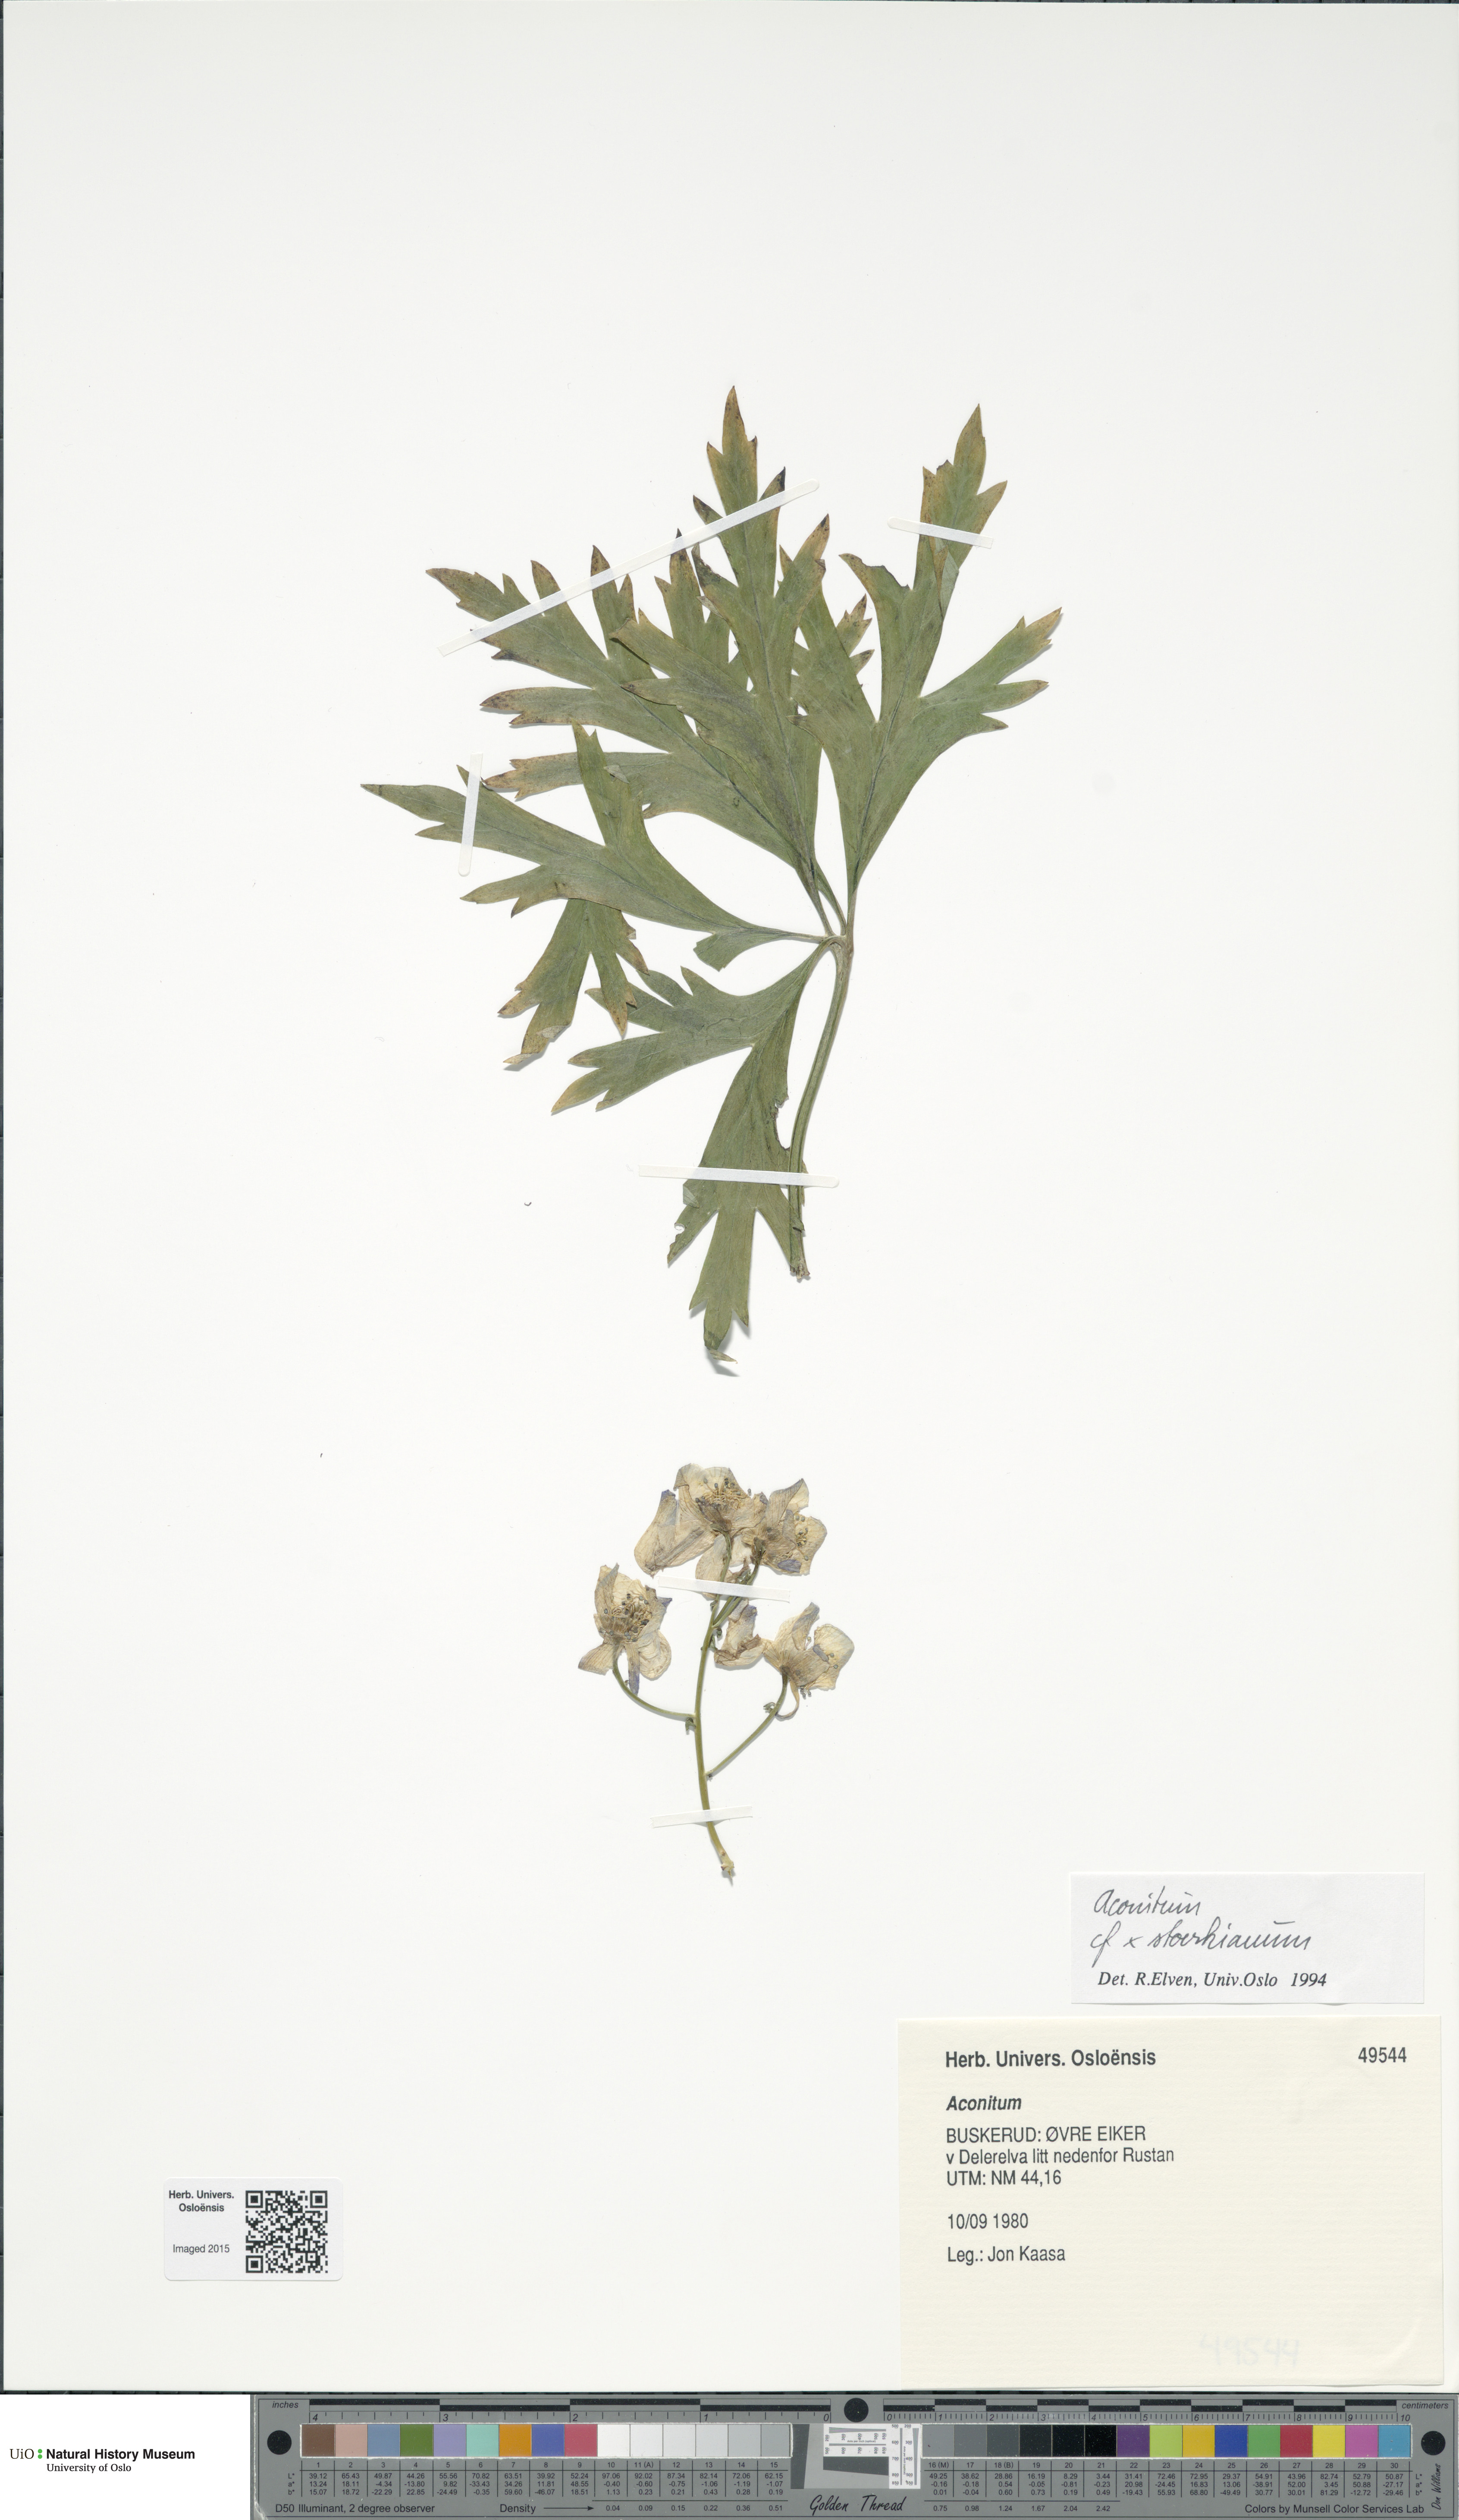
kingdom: Plantae
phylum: Tracheophyta
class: Magnoliopsida
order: Ranunculales
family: Ranunculaceae
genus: Aconitum
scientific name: Aconitum cammarum
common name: Hybrid monk's-hood
